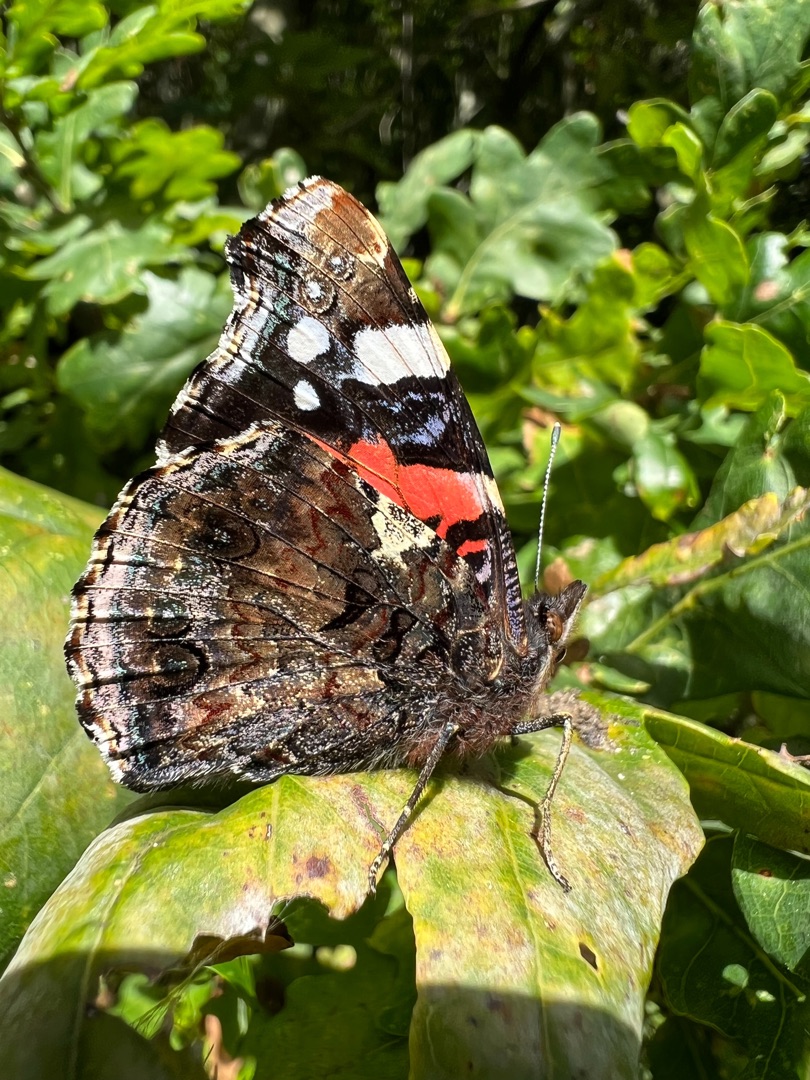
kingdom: Animalia
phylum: Arthropoda
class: Insecta
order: Lepidoptera
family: Nymphalidae
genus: Vanessa
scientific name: Vanessa atalanta
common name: Admiral
